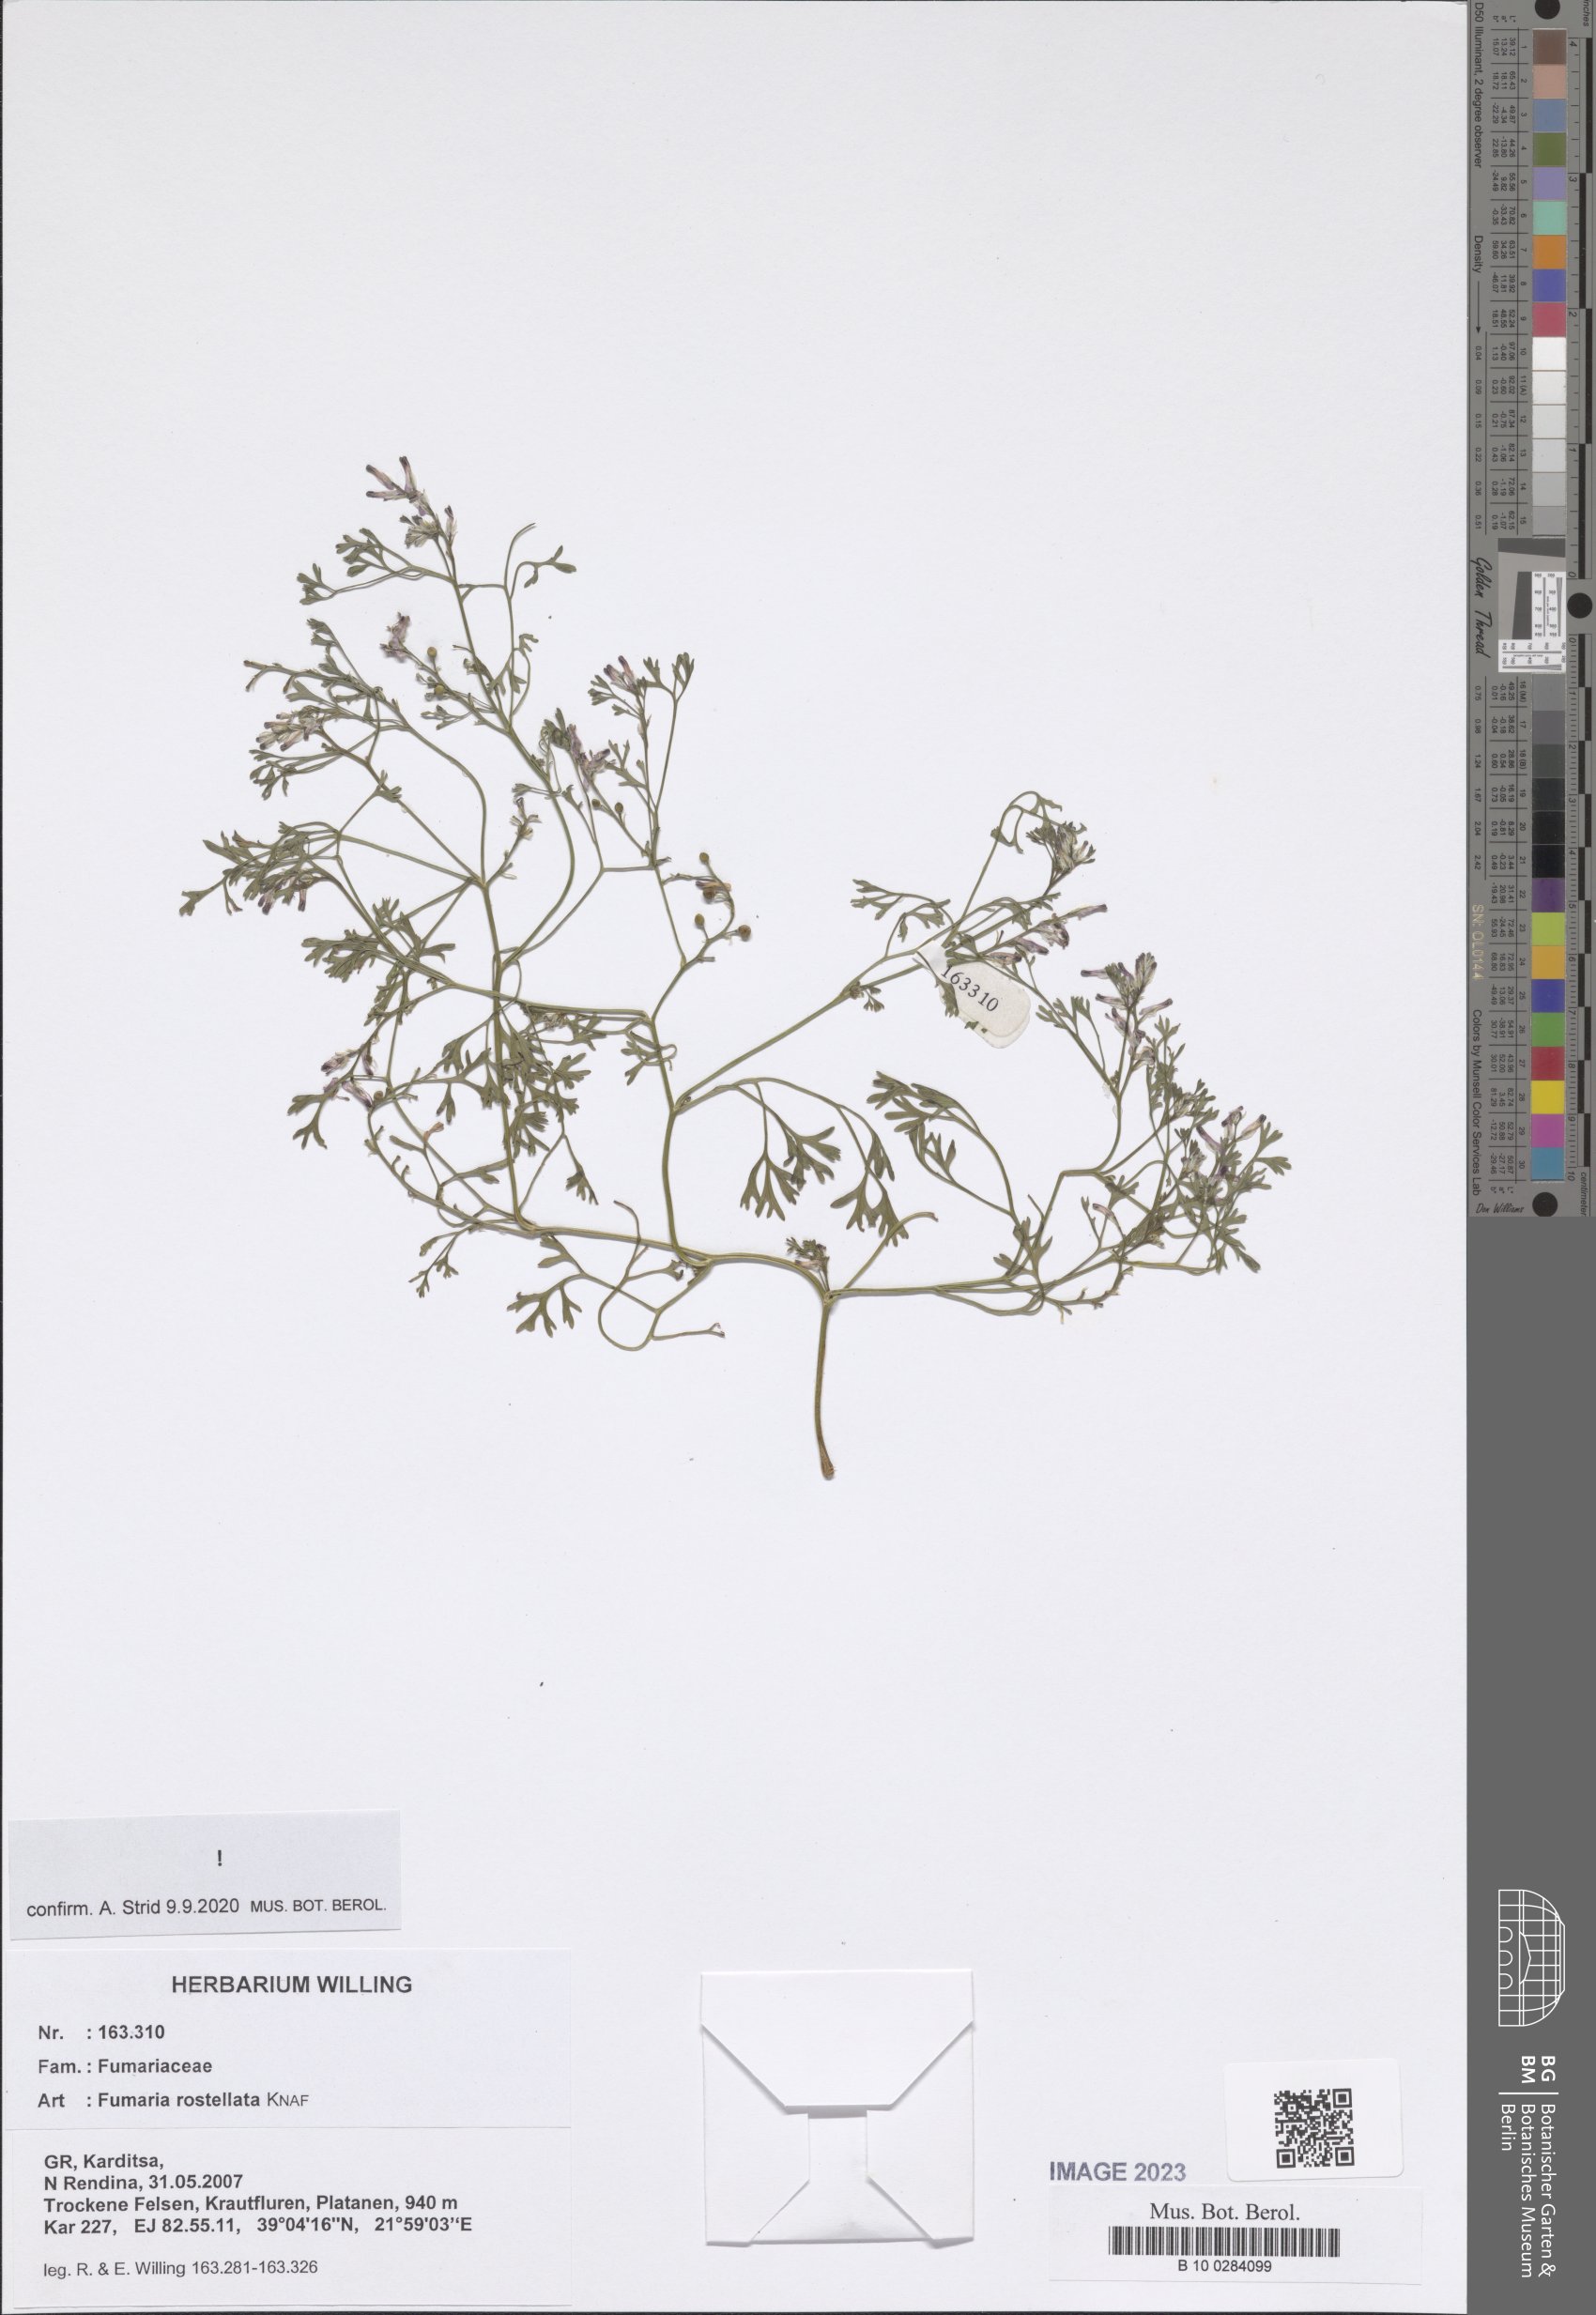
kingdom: Plantae
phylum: Tracheophyta
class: Magnoliopsida
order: Ranunculales
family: Papaveraceae
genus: Fumaria
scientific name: Fumaria rostellata
